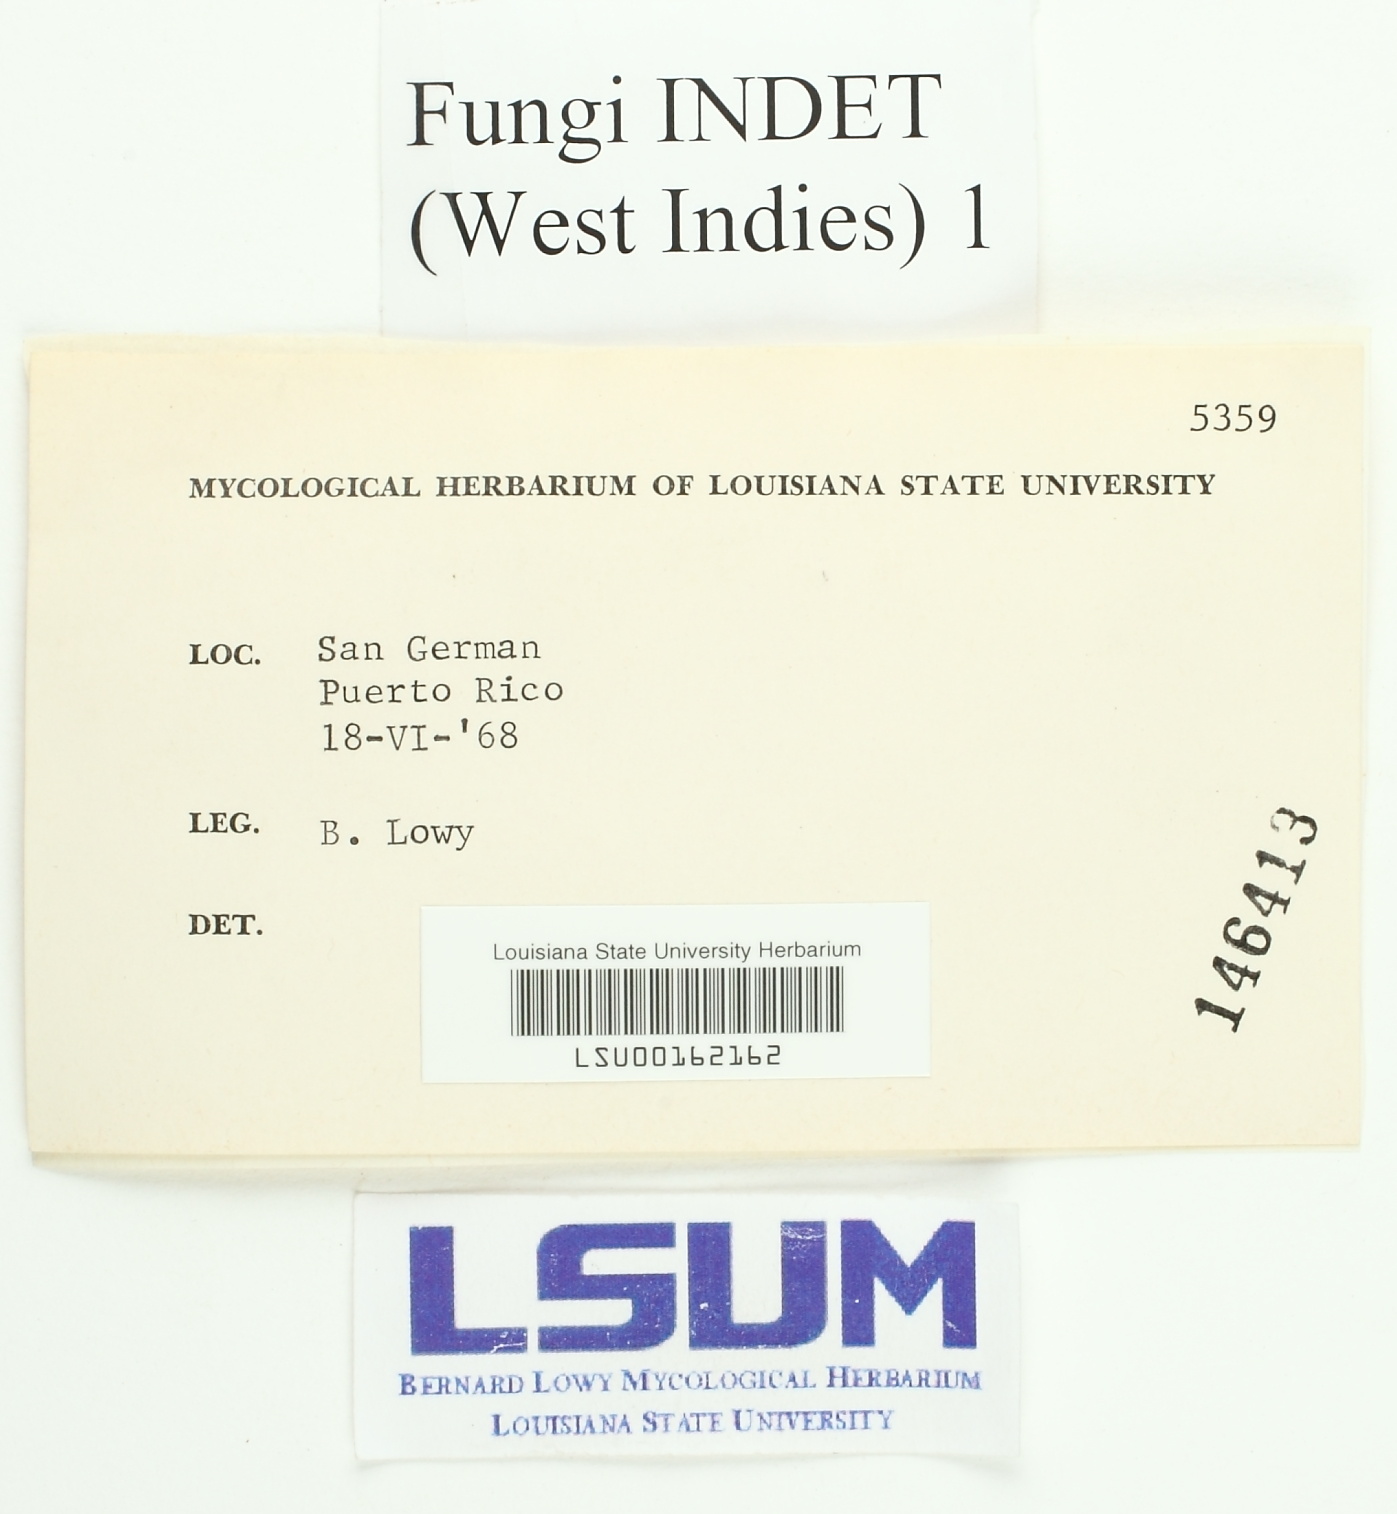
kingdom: Fungi
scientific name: Fungi
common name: Fungi
